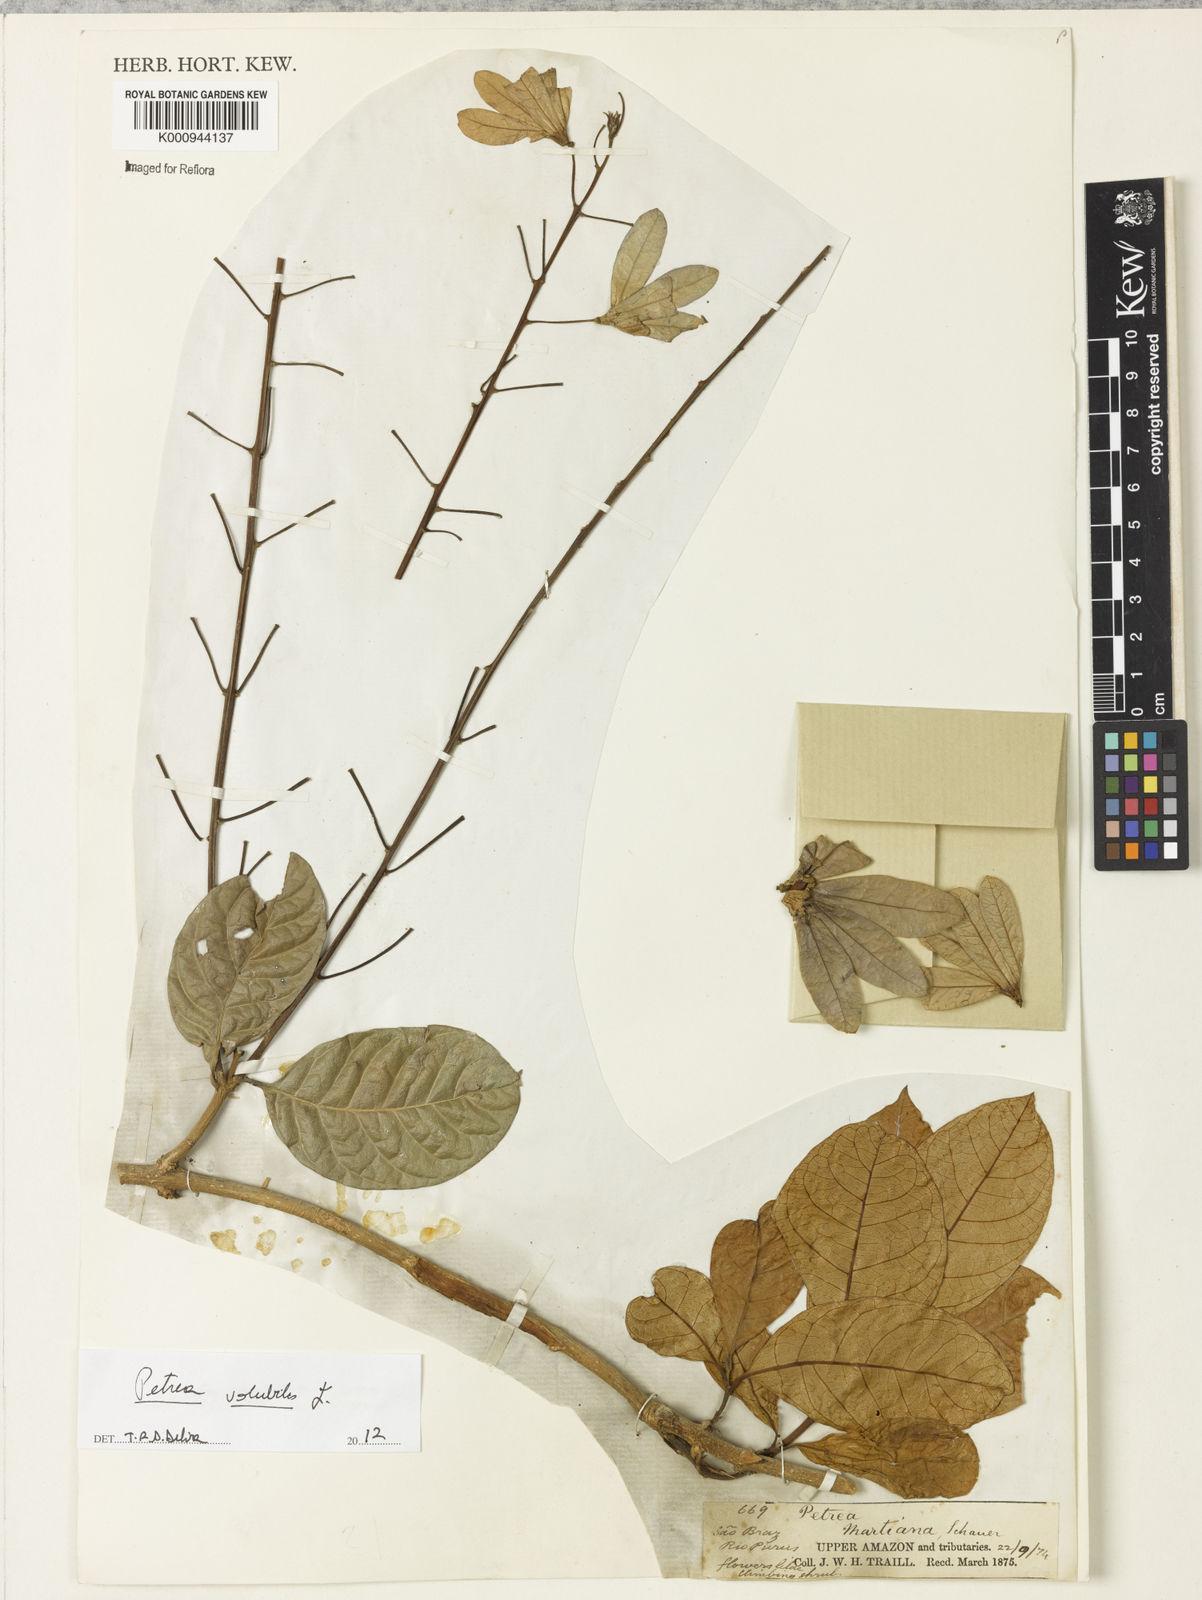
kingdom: Plantae
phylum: Tracheophyta
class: Magnoliopsida
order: Lamiales
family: Verbenaceae
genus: Petrea
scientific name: Petrea
